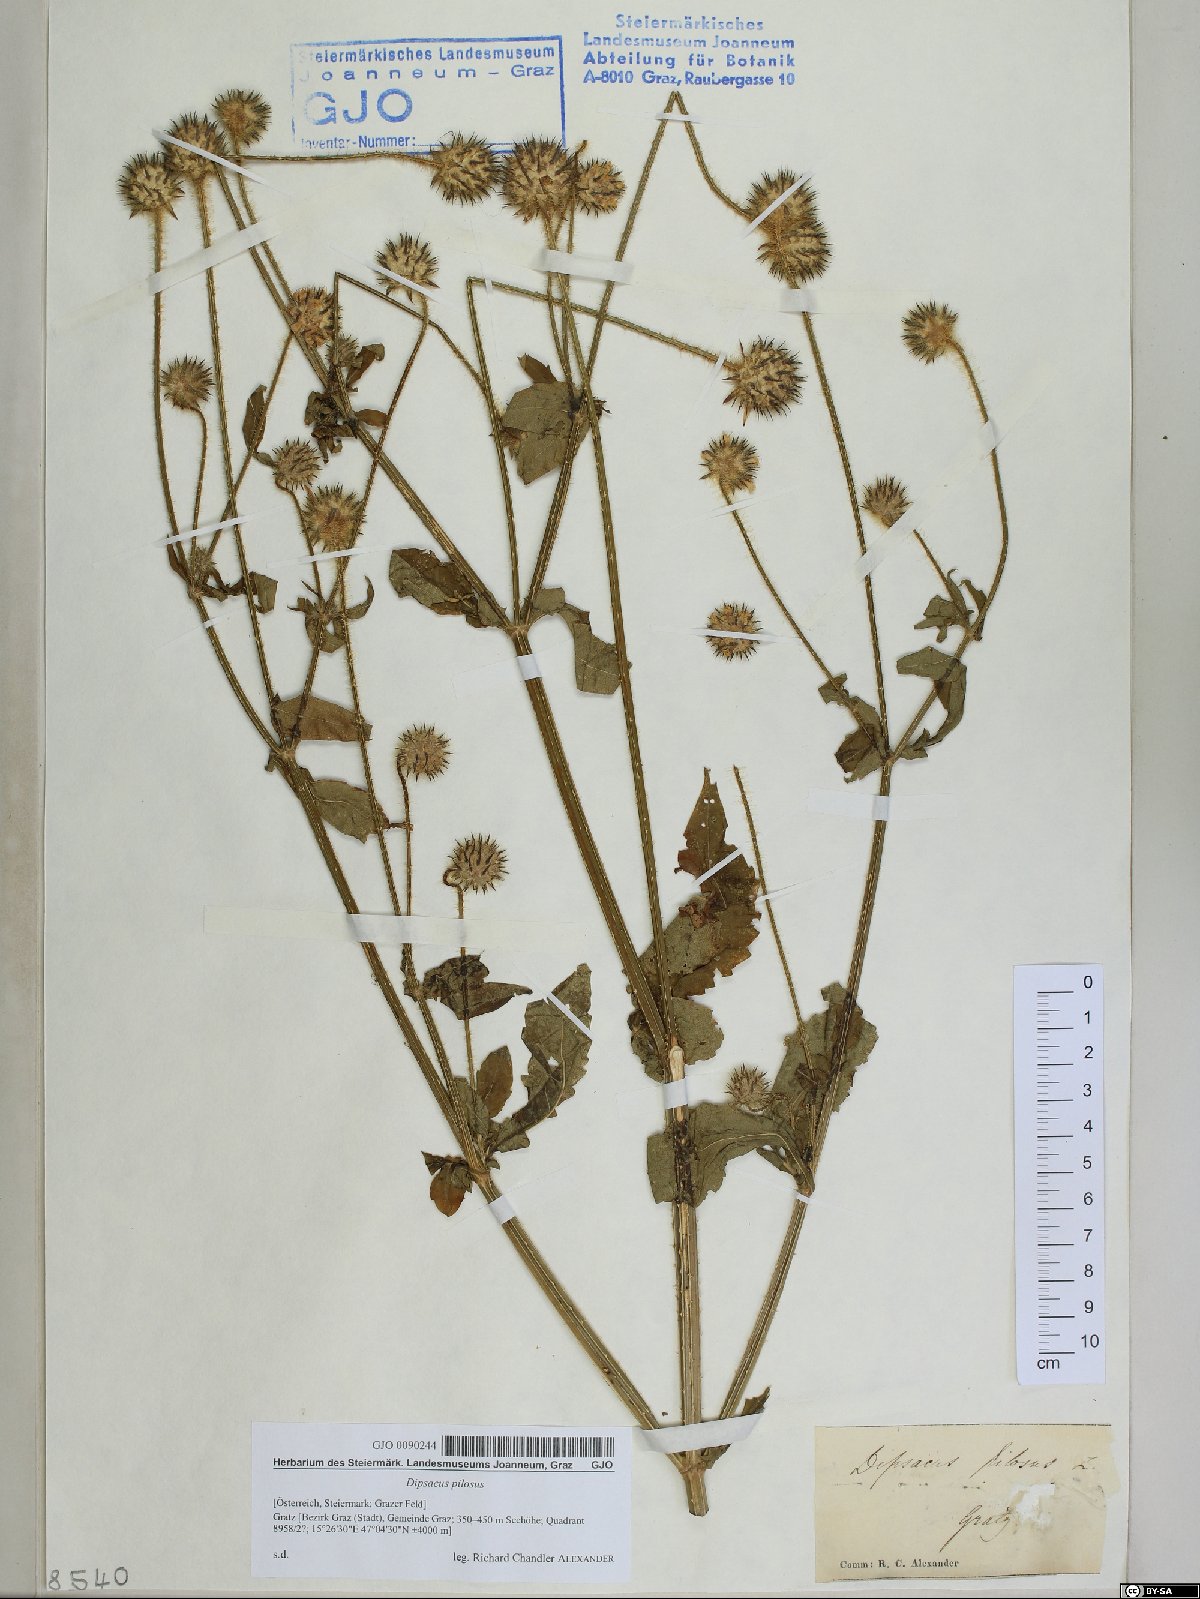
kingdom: Plantae
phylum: Tracheophyta
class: Magnoliopsida
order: Dipsacales
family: Caprifoliaceae
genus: Dipsacus
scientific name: Dipsacus pilosus
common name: Small teasel
